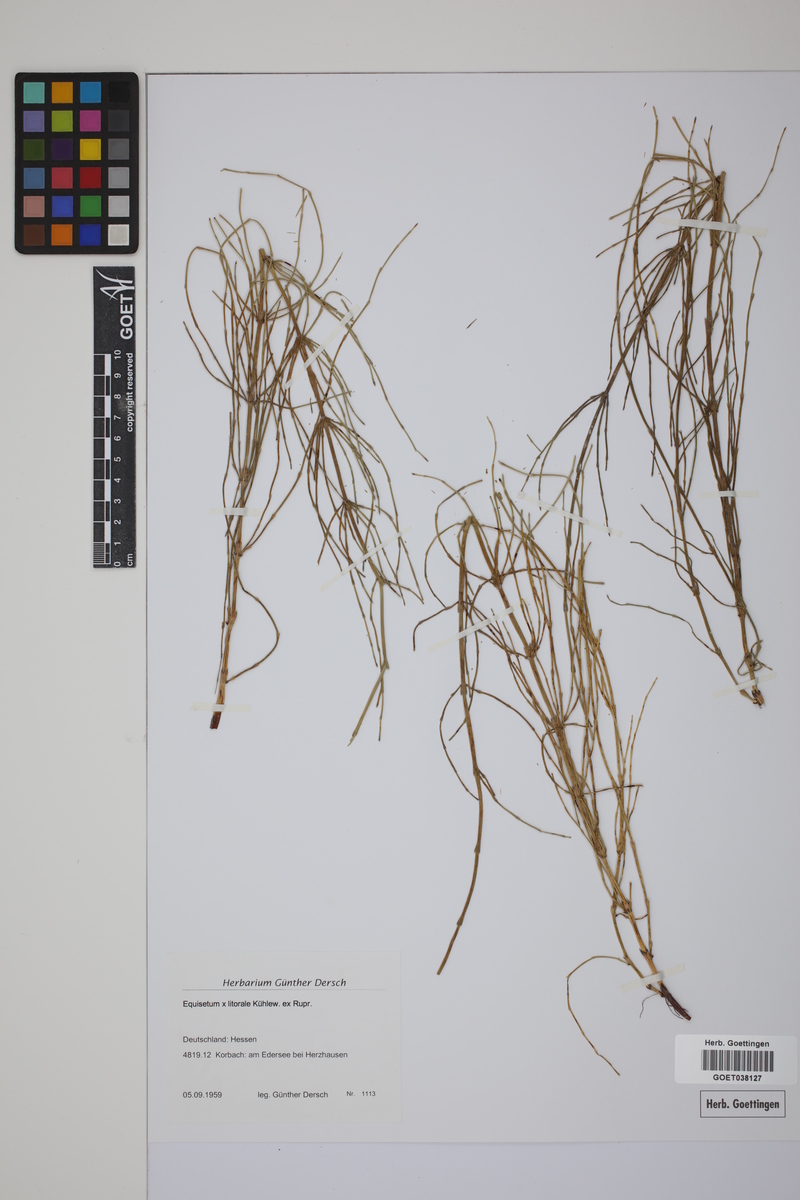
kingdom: Plantae
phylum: Tracheophyta
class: Polypodiopsida
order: Equisetales
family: Equisetaceae
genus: Equisetum
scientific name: Equisetum litorale
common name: Littoral horsetail
